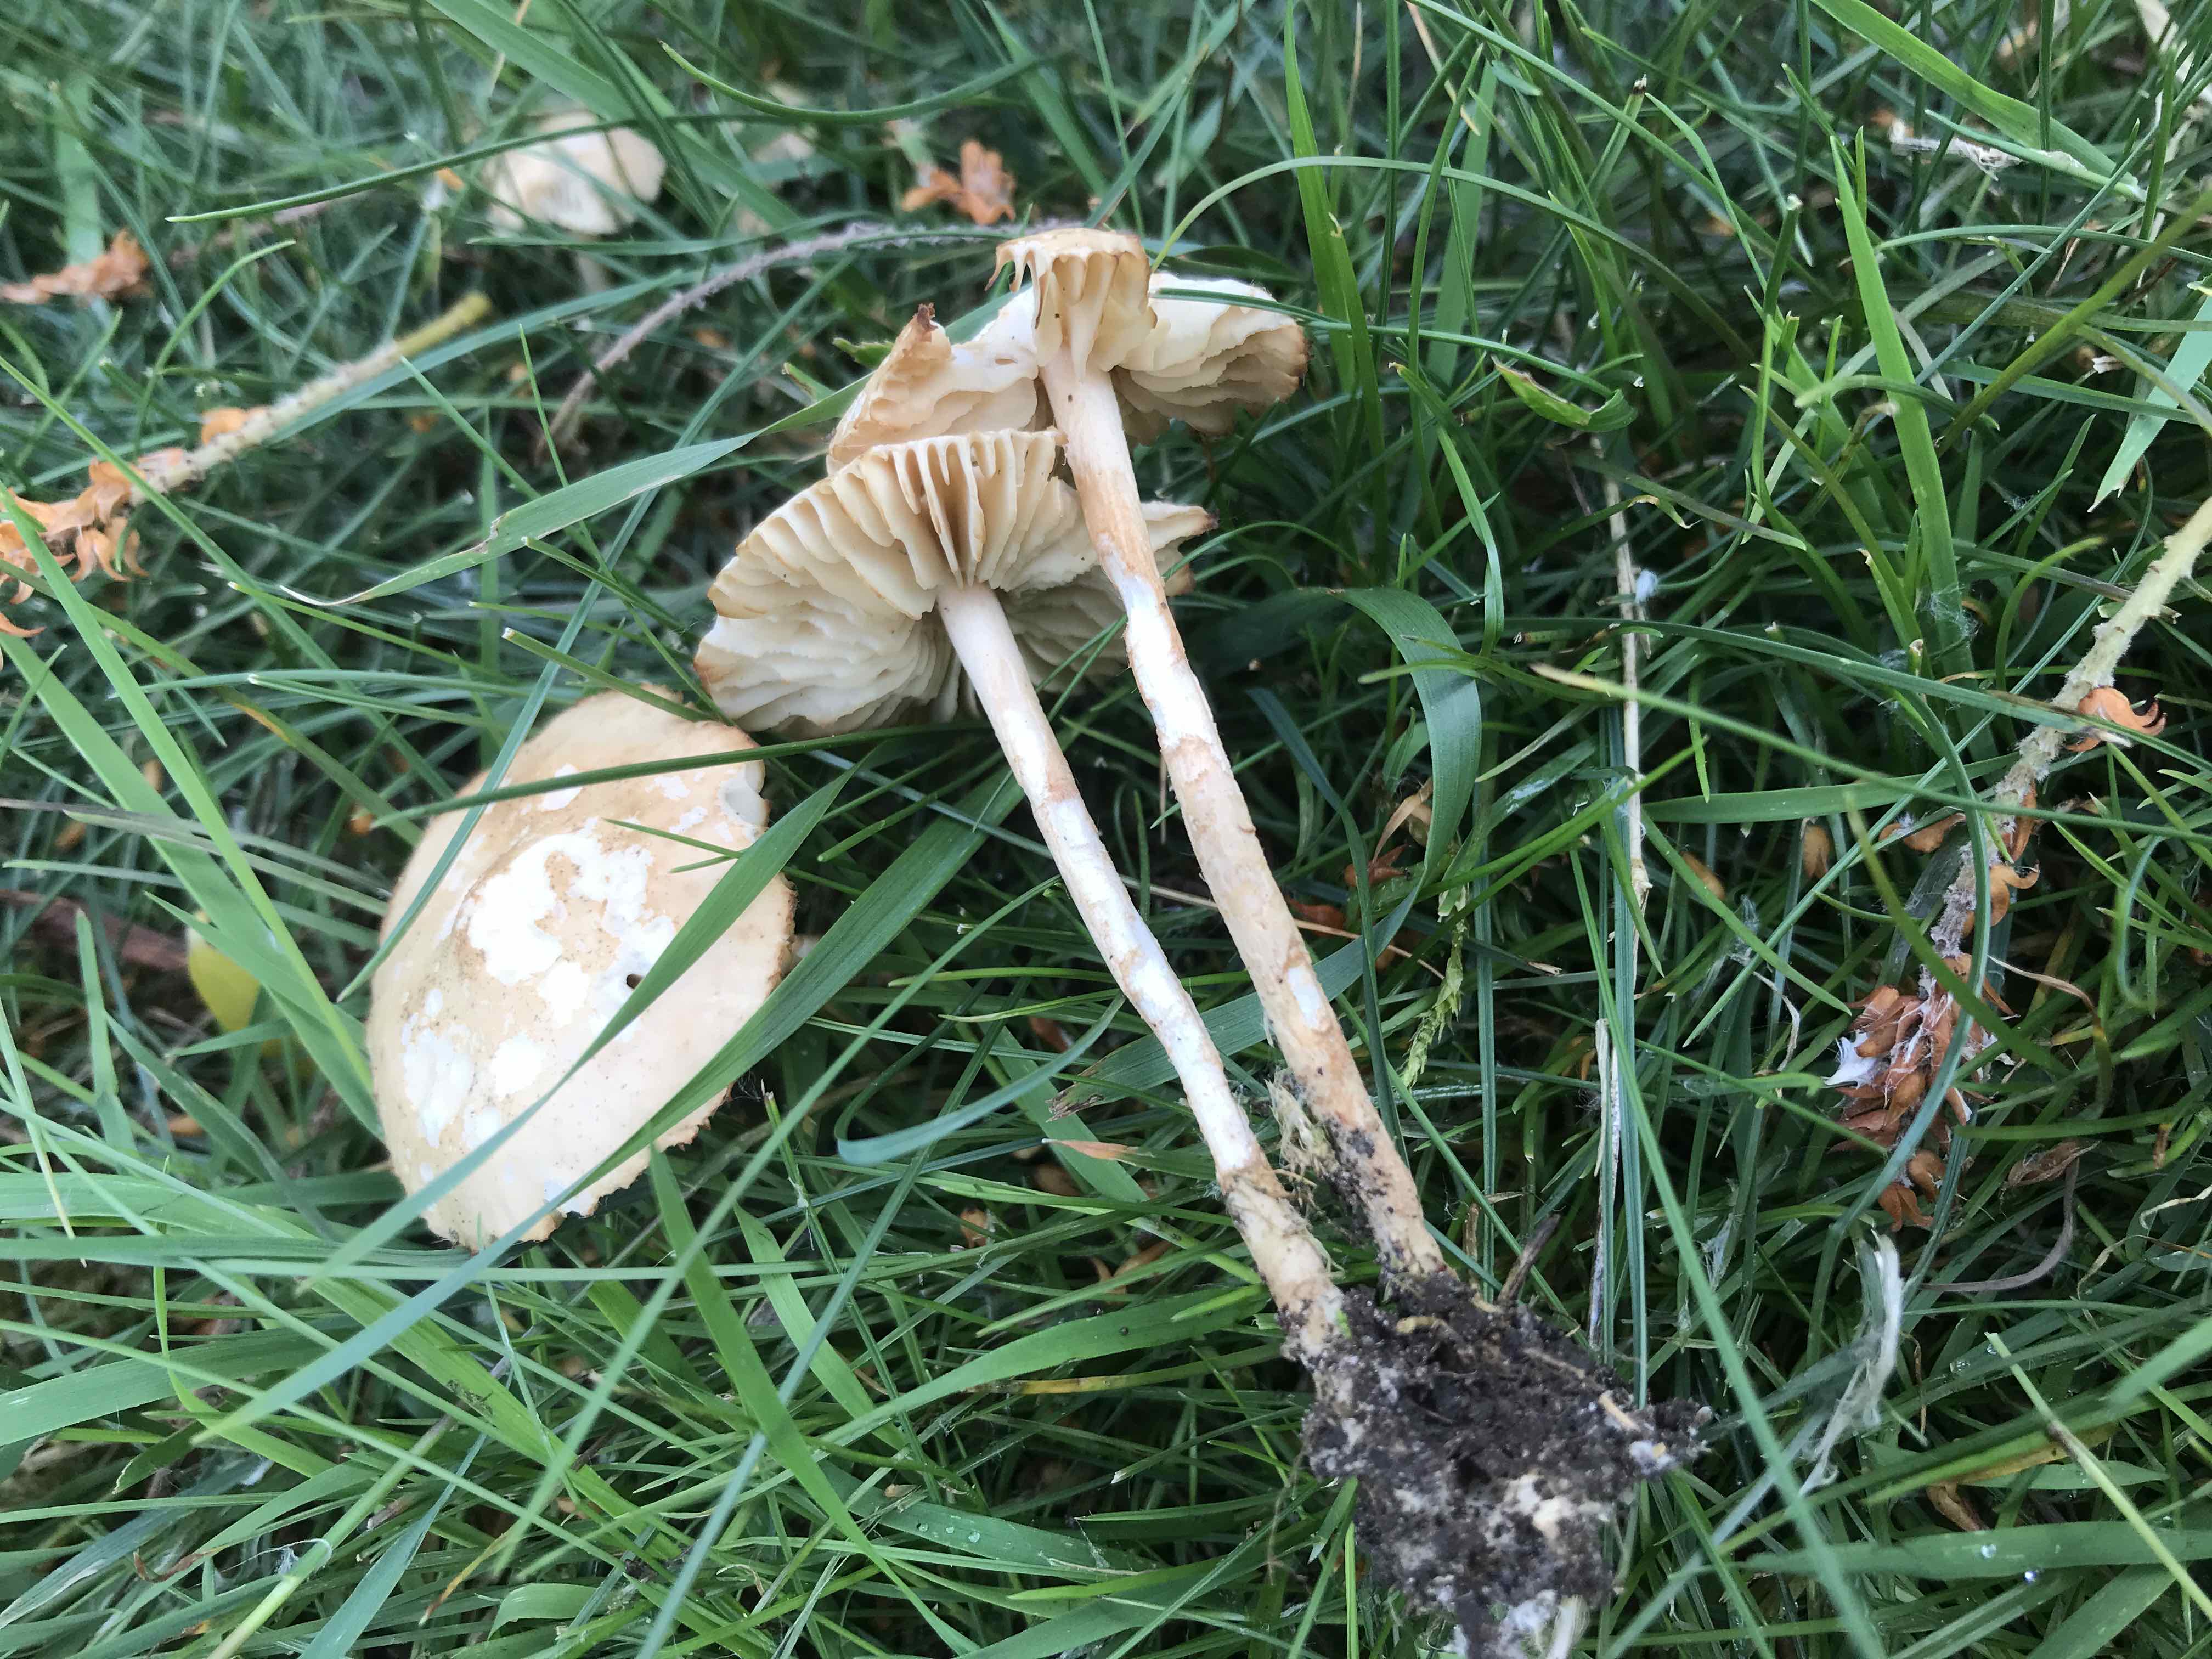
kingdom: Fungi
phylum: Basidiomycota
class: Agaricomycetes
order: Agaricales
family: Marasmiaceae
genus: Marasmius
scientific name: Marasmius oreades
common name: elledans-bruskhat
